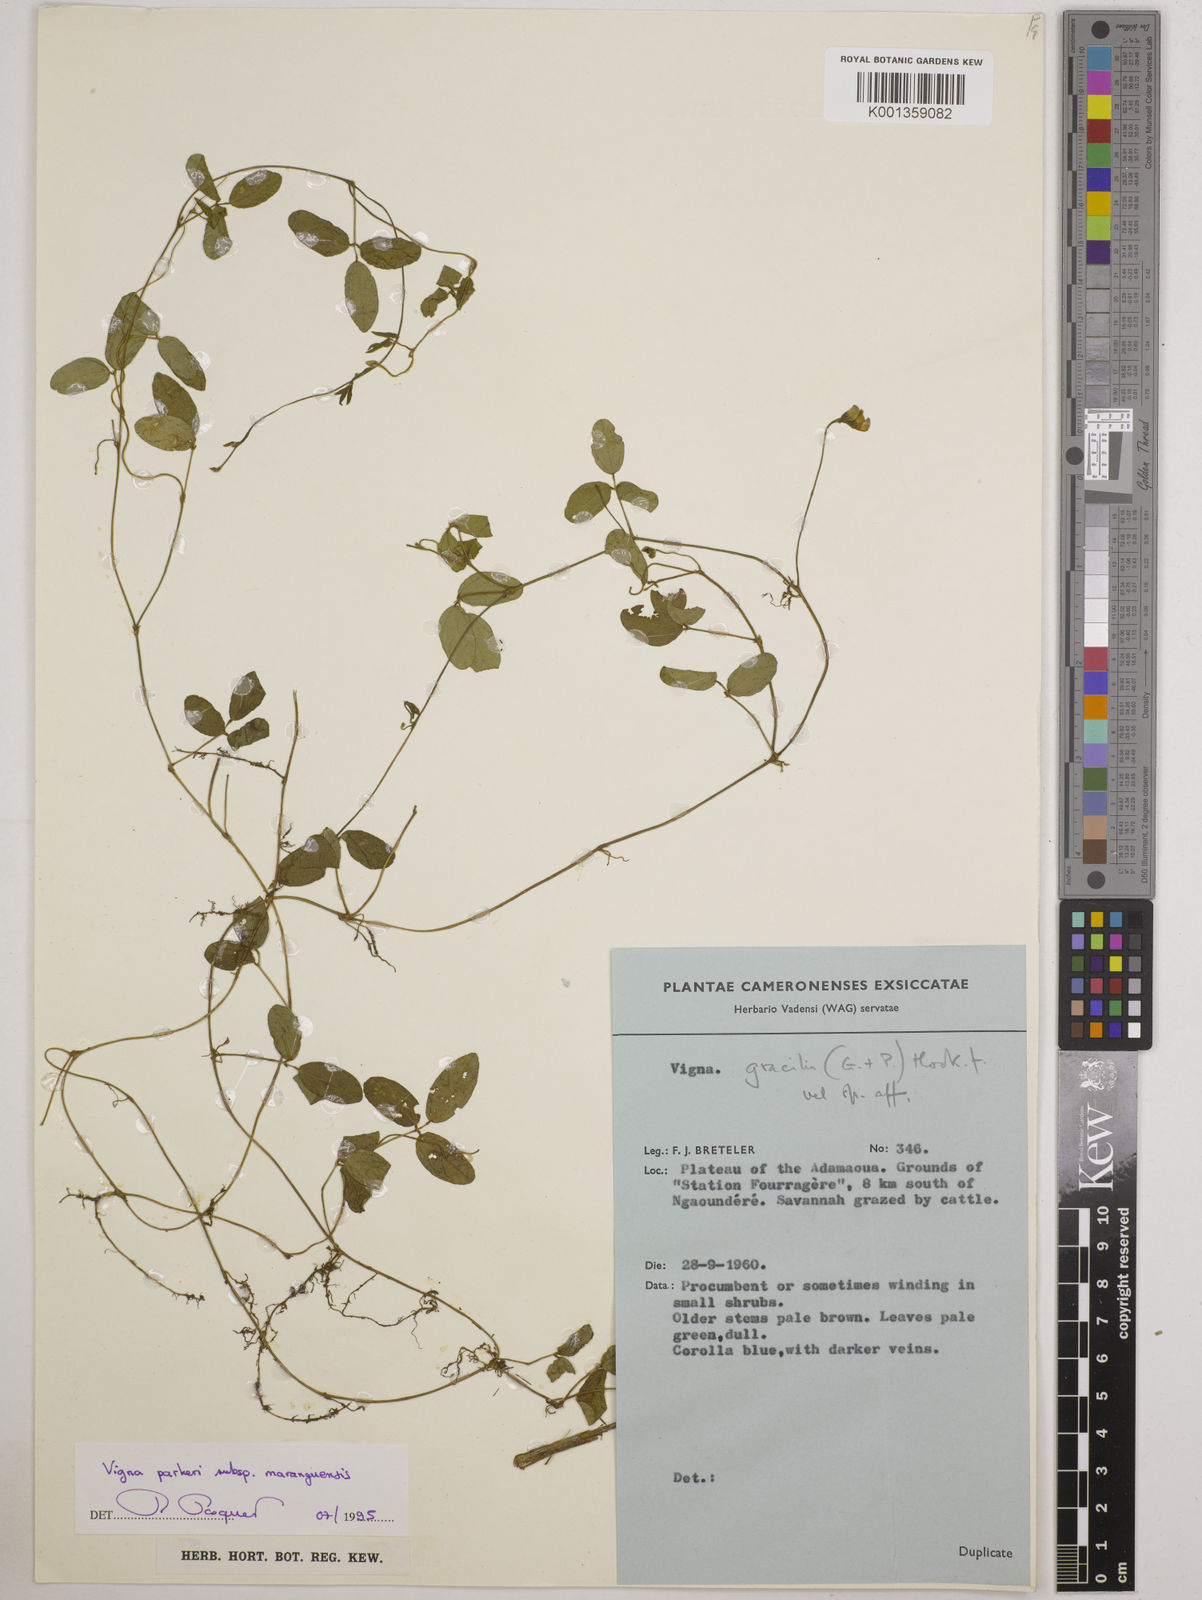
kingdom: Plantae
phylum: Tracheophyta
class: Magnoliopsida
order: Fabales
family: Fabaceae
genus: Vigna
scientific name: Vigna
